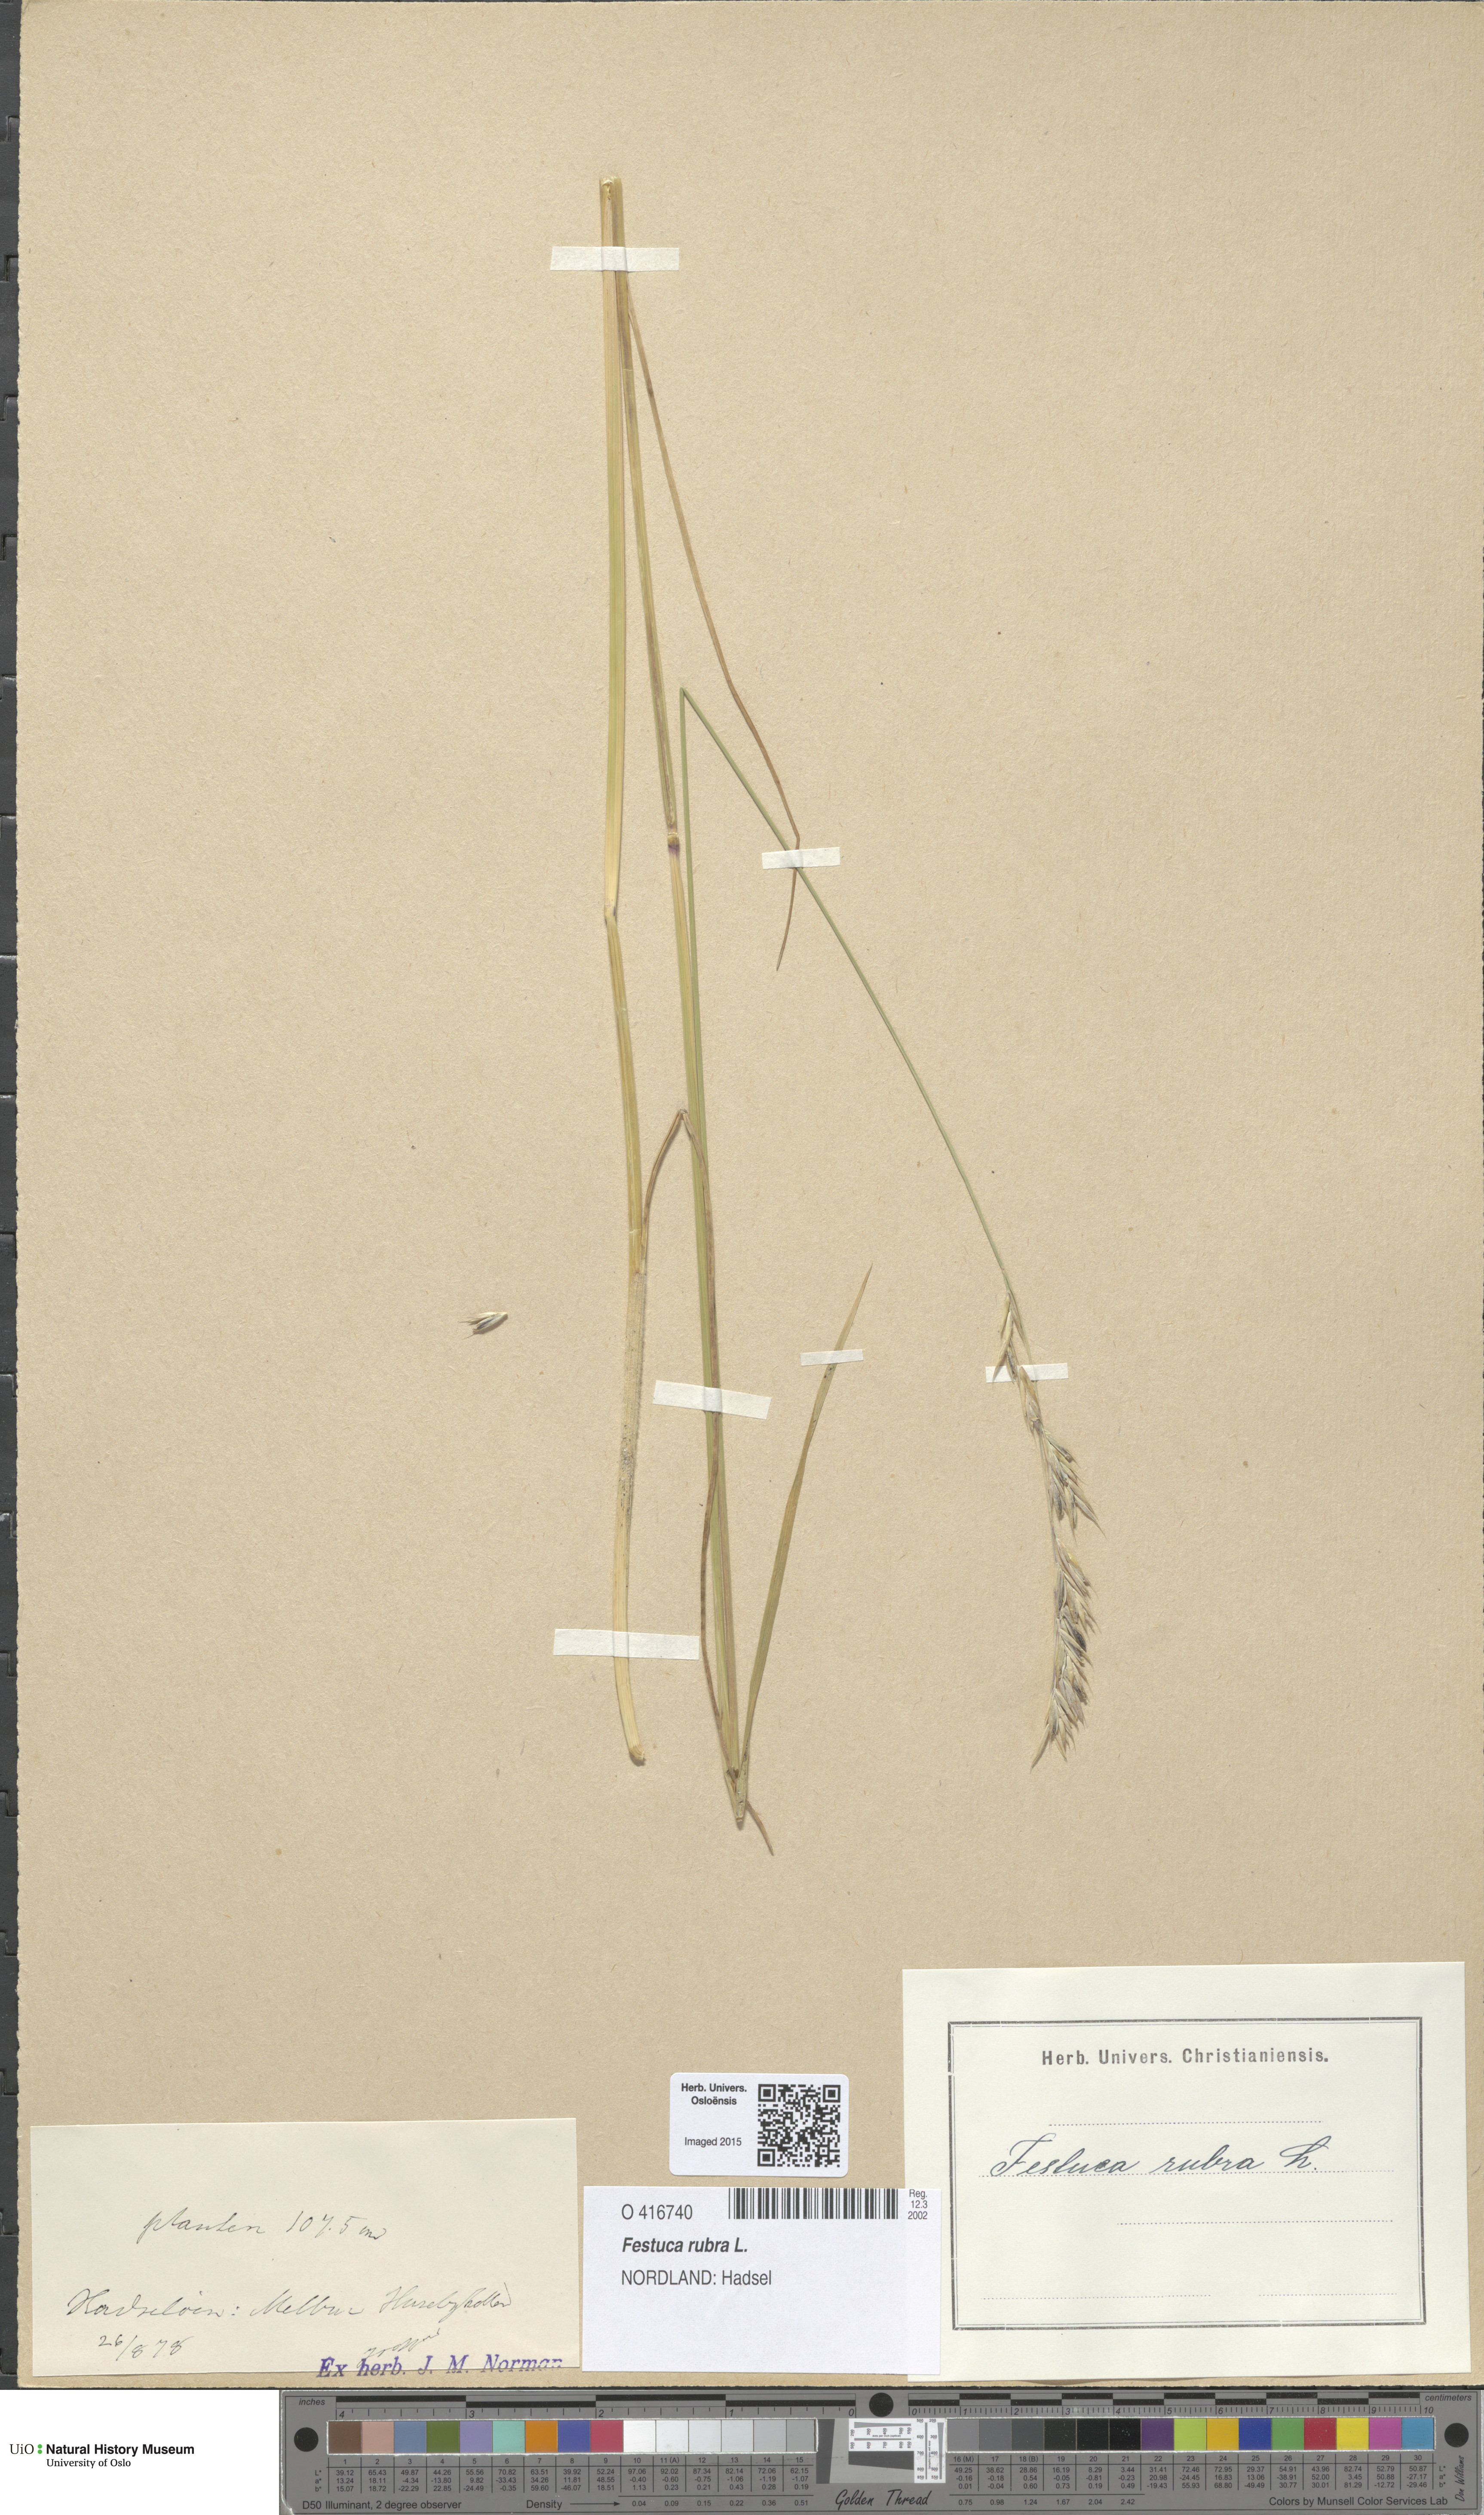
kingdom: Plantae
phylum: Tracheophyta
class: Liliopsida
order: Poales
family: Poaceae
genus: Festuca
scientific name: Festuca rubra
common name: Red fescue
